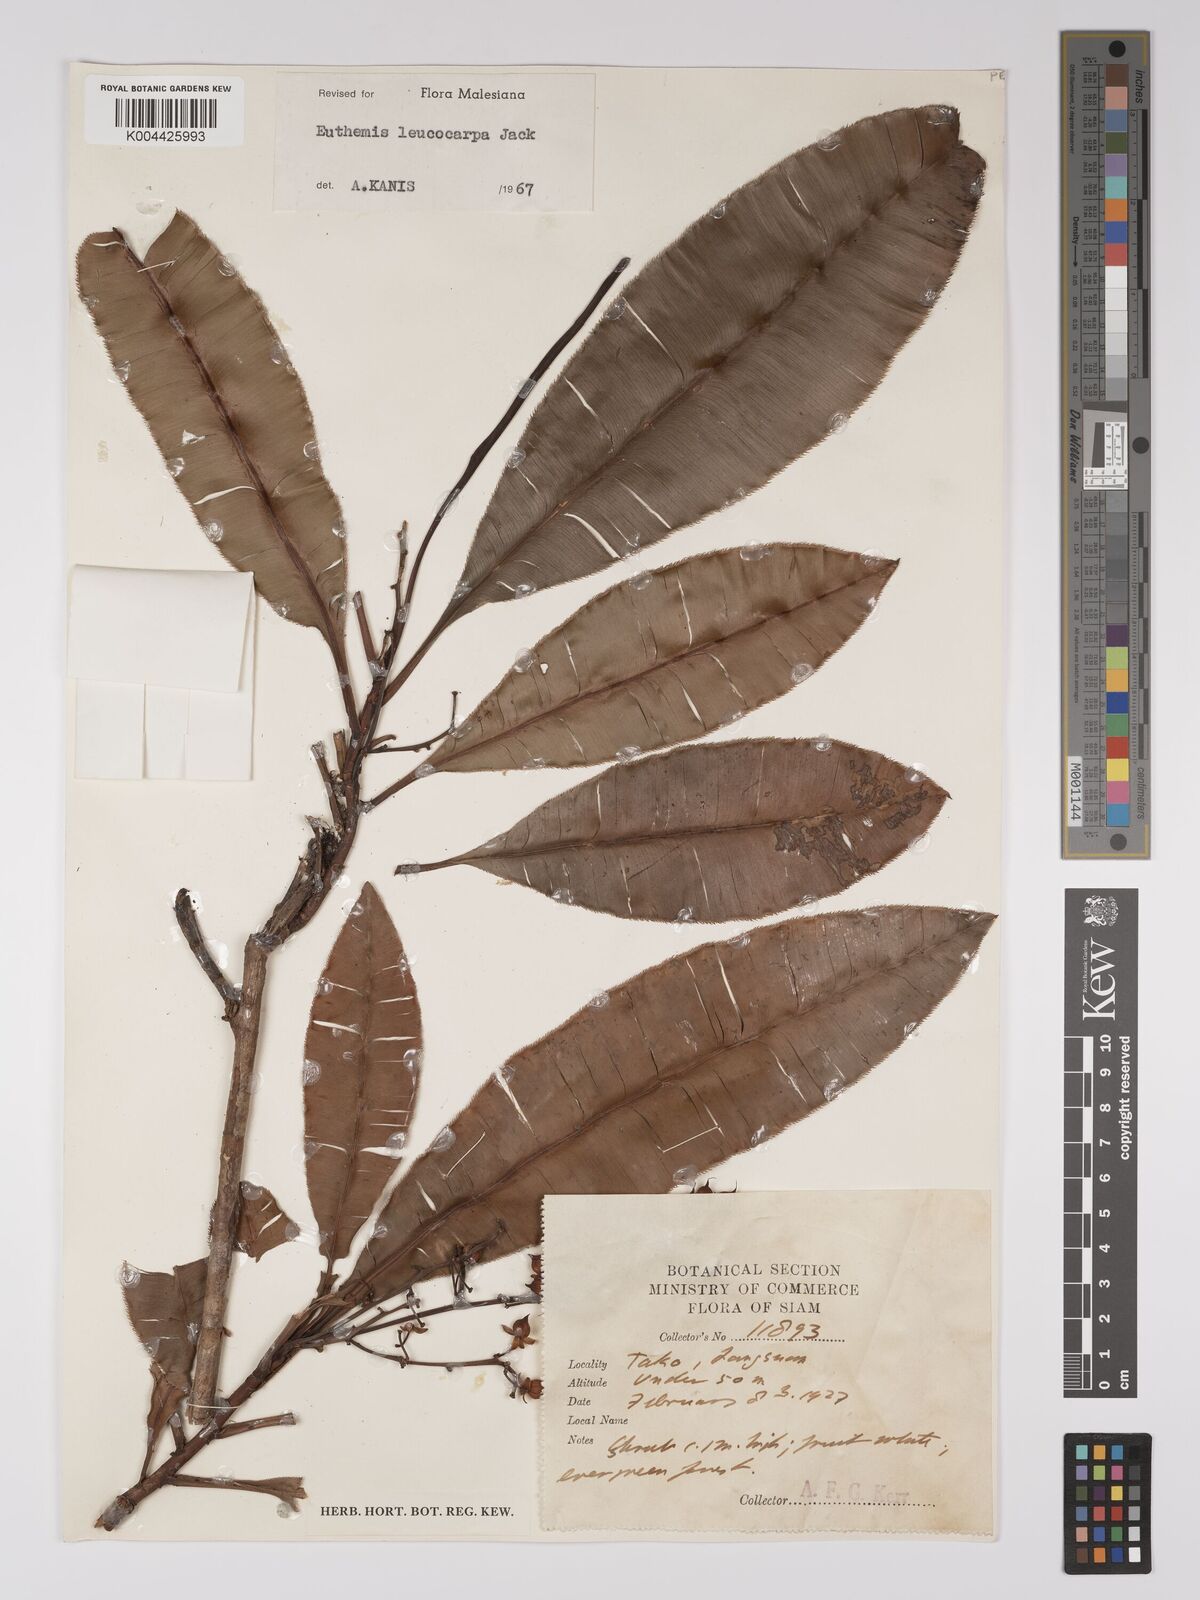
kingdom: Plantae
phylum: Tracheophyta
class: Magnoliopsida
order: Malpighiales
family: Ochnaceae
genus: Euthemis
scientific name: Euthemis leucocarpa
